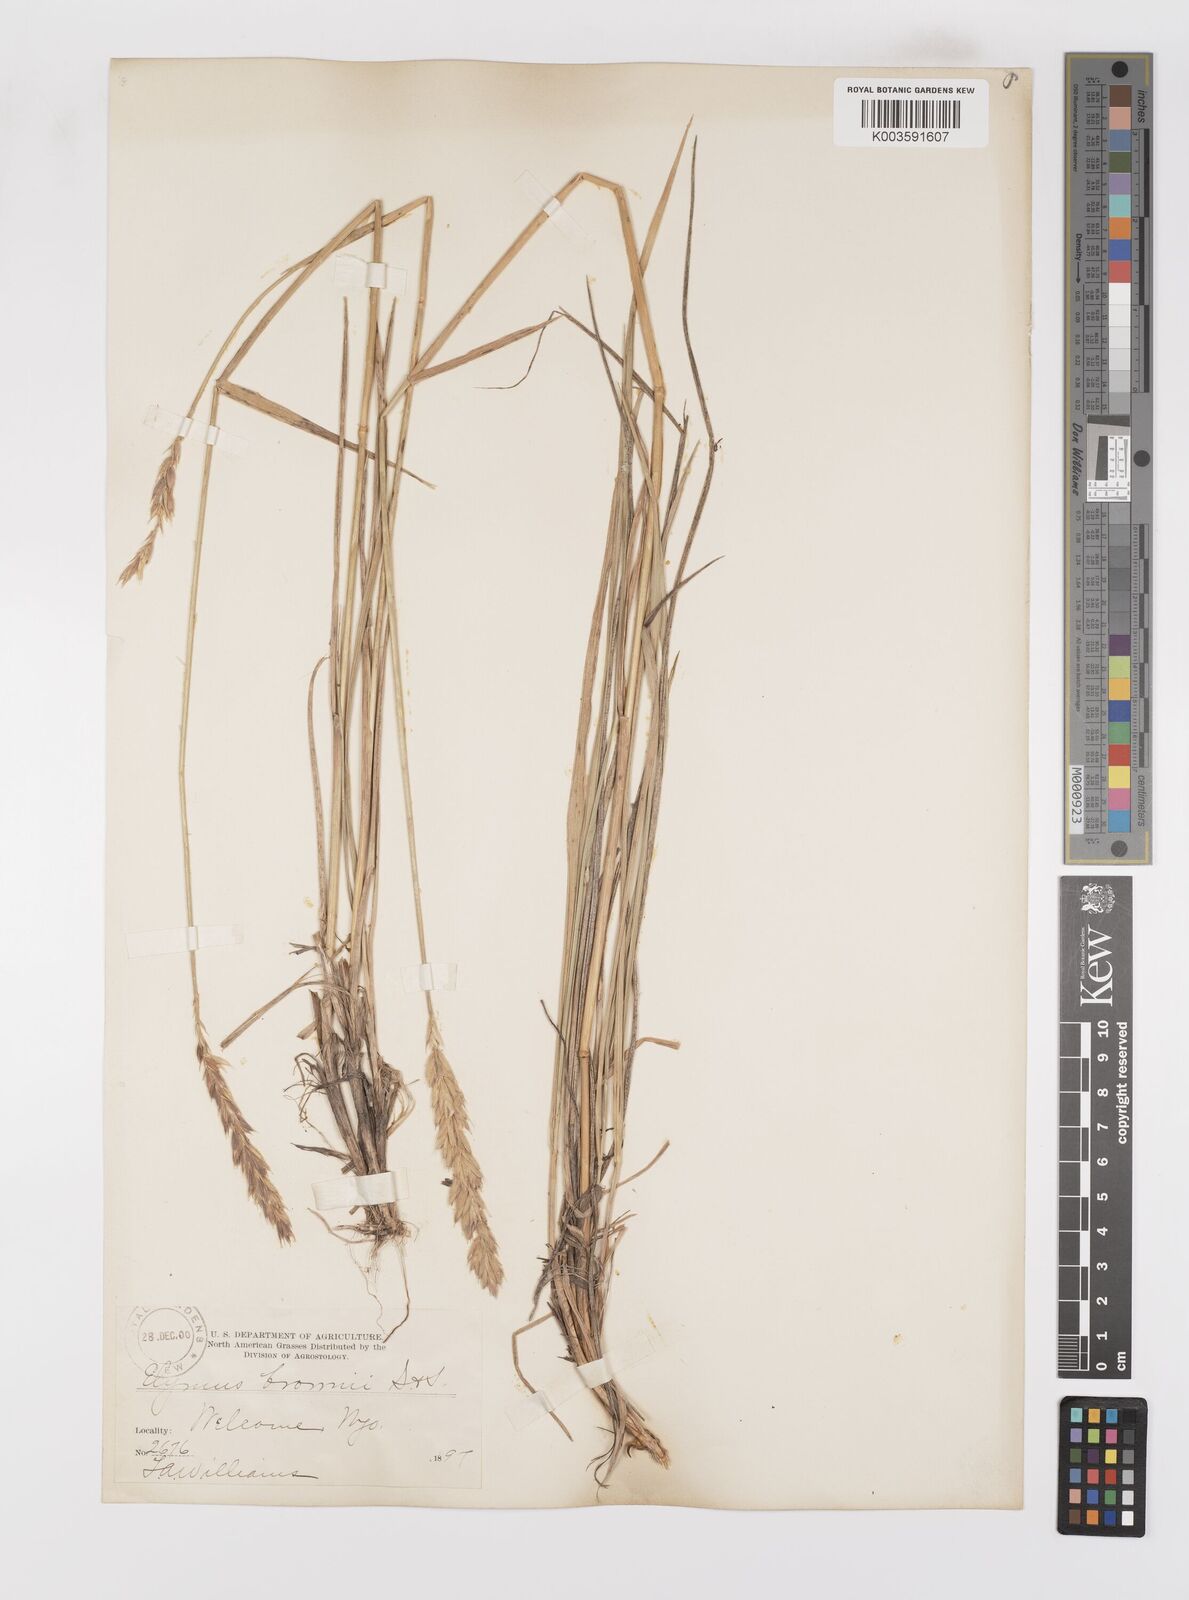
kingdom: Plantae
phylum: Tracheophyta
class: Liliopsida
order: Poales
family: Poaceae
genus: Leymus
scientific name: Leymus innovatus
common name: Boreal wild rye
